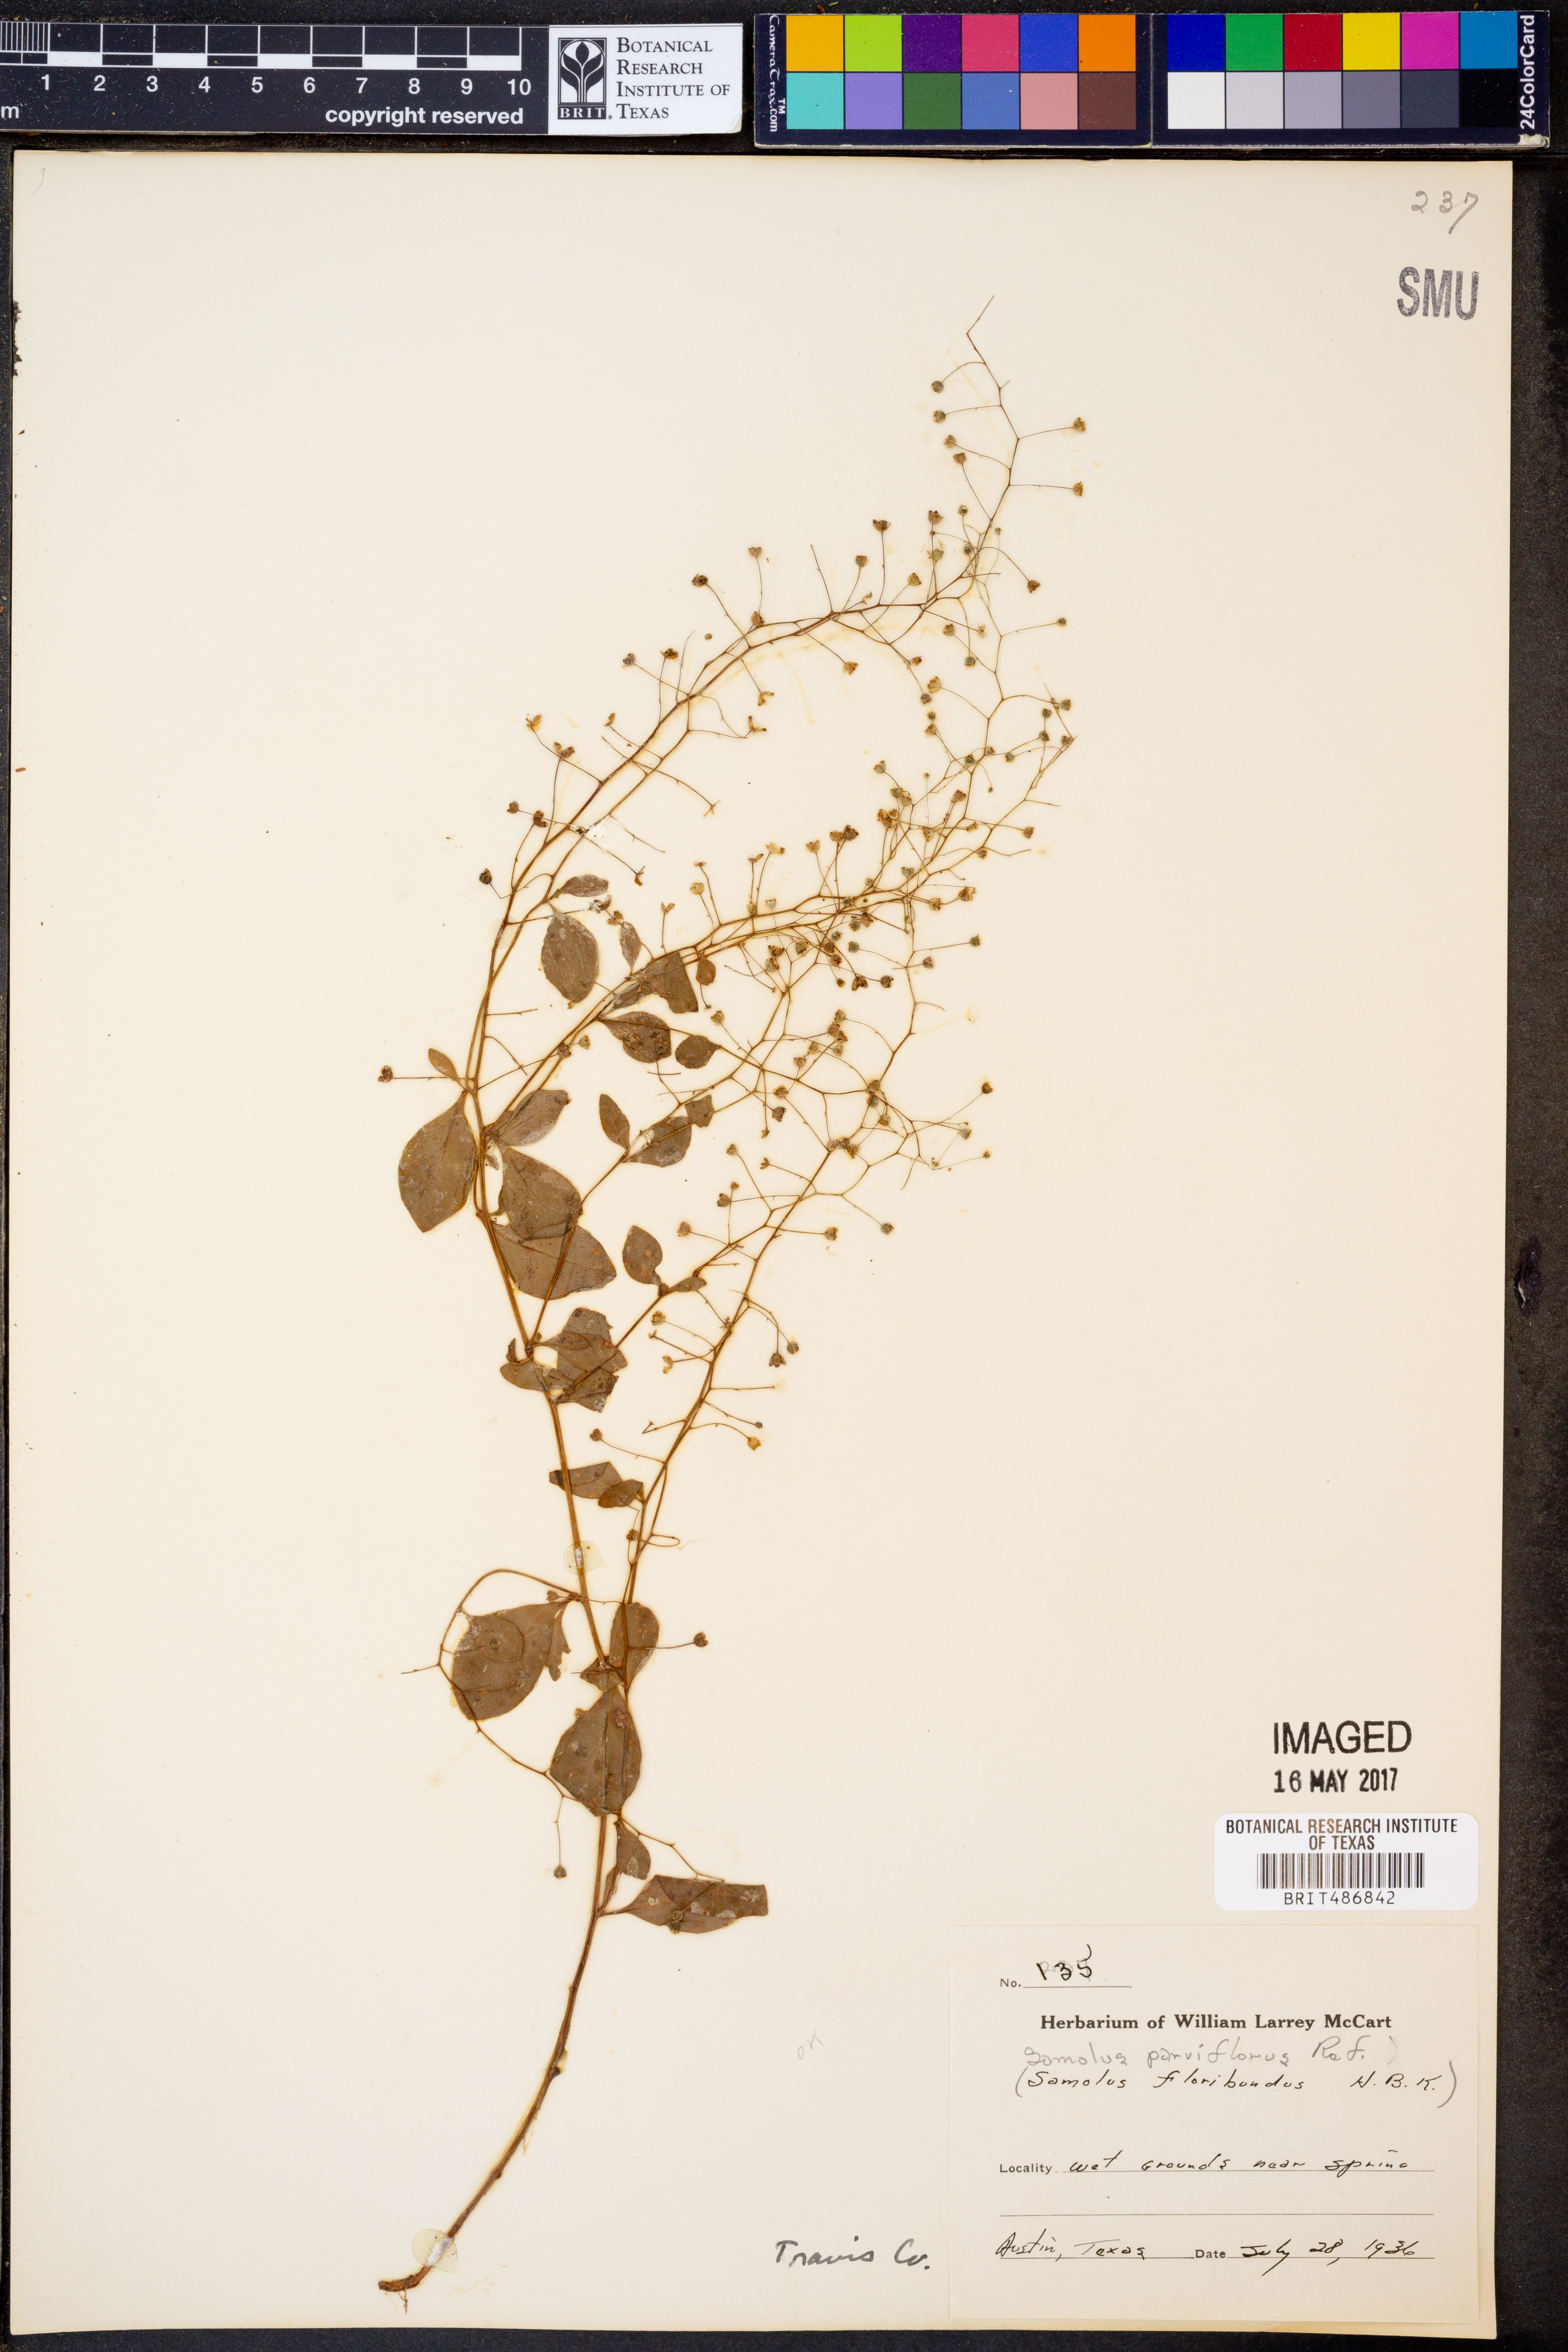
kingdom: Plantae
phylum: Tracheophyta
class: Magnoliopsida
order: Ericales
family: Primulaceae
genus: Samolus
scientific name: Samolus parviflorus
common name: False water pimpernel
